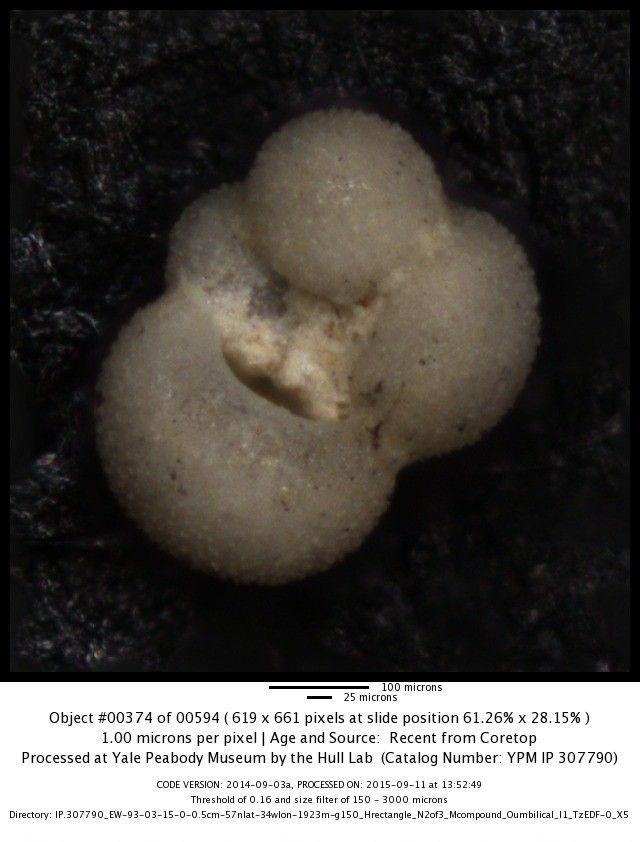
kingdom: Chromista
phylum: Foraminifera
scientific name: Foraminifera
